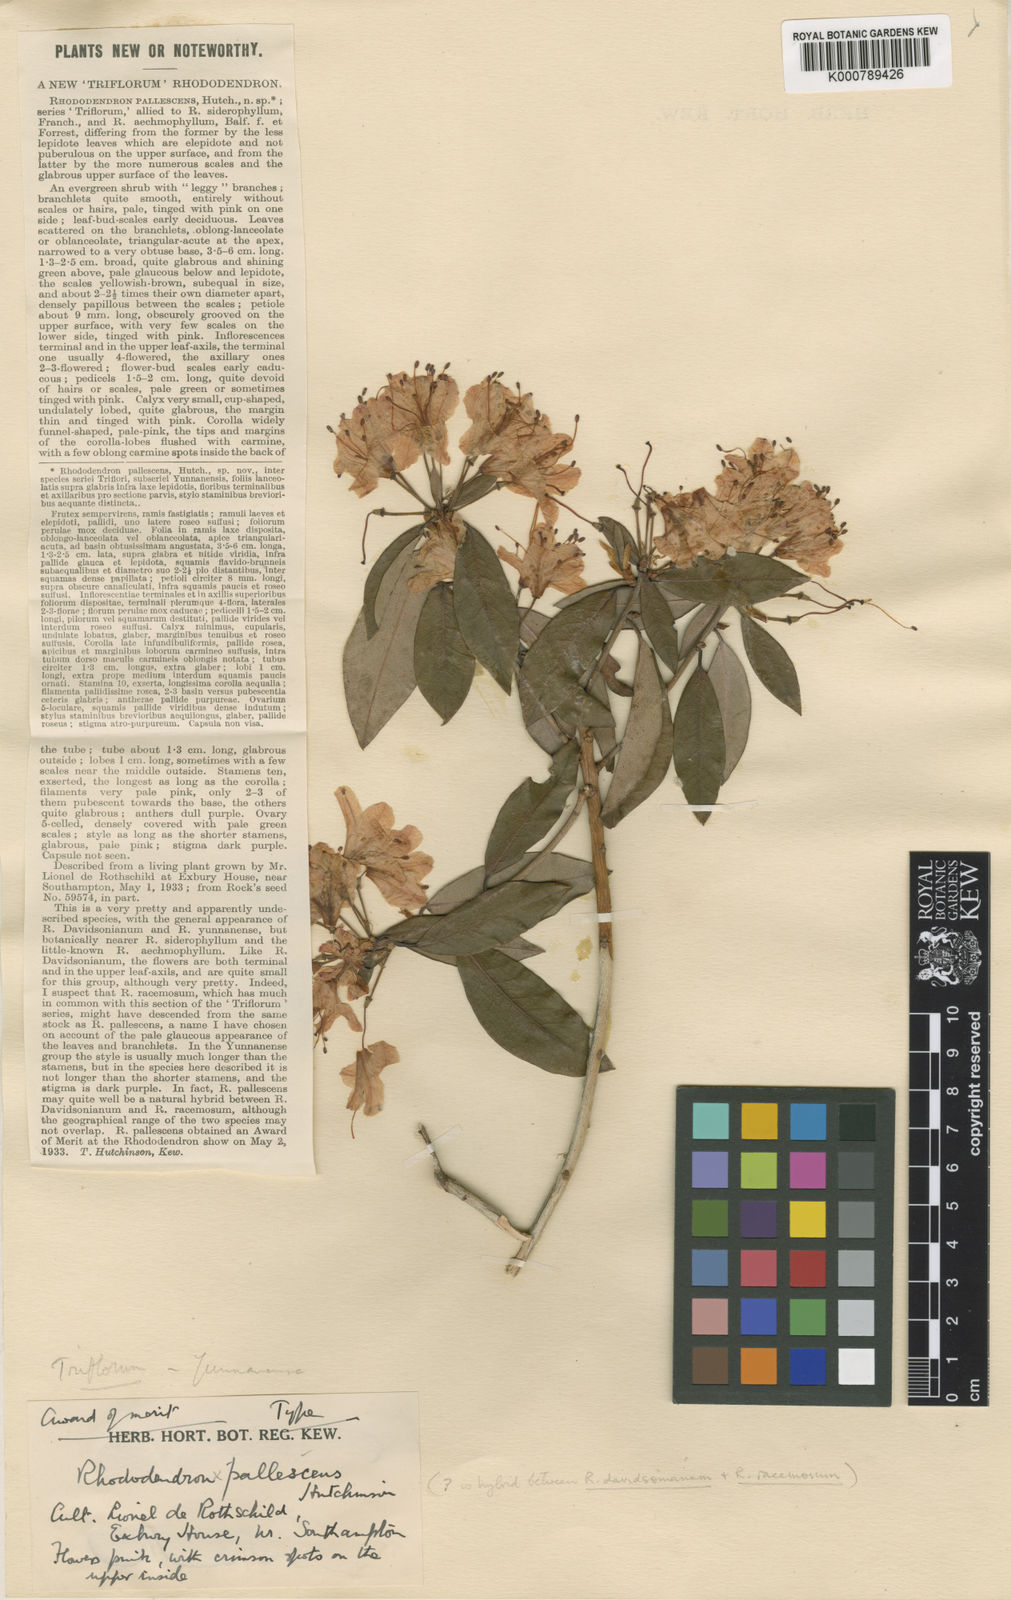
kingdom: Plantae
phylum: Tracheophyta
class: Magnoliopsida
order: Ericales
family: Ericaceae
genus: Rhododendron
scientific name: Rhododendron
